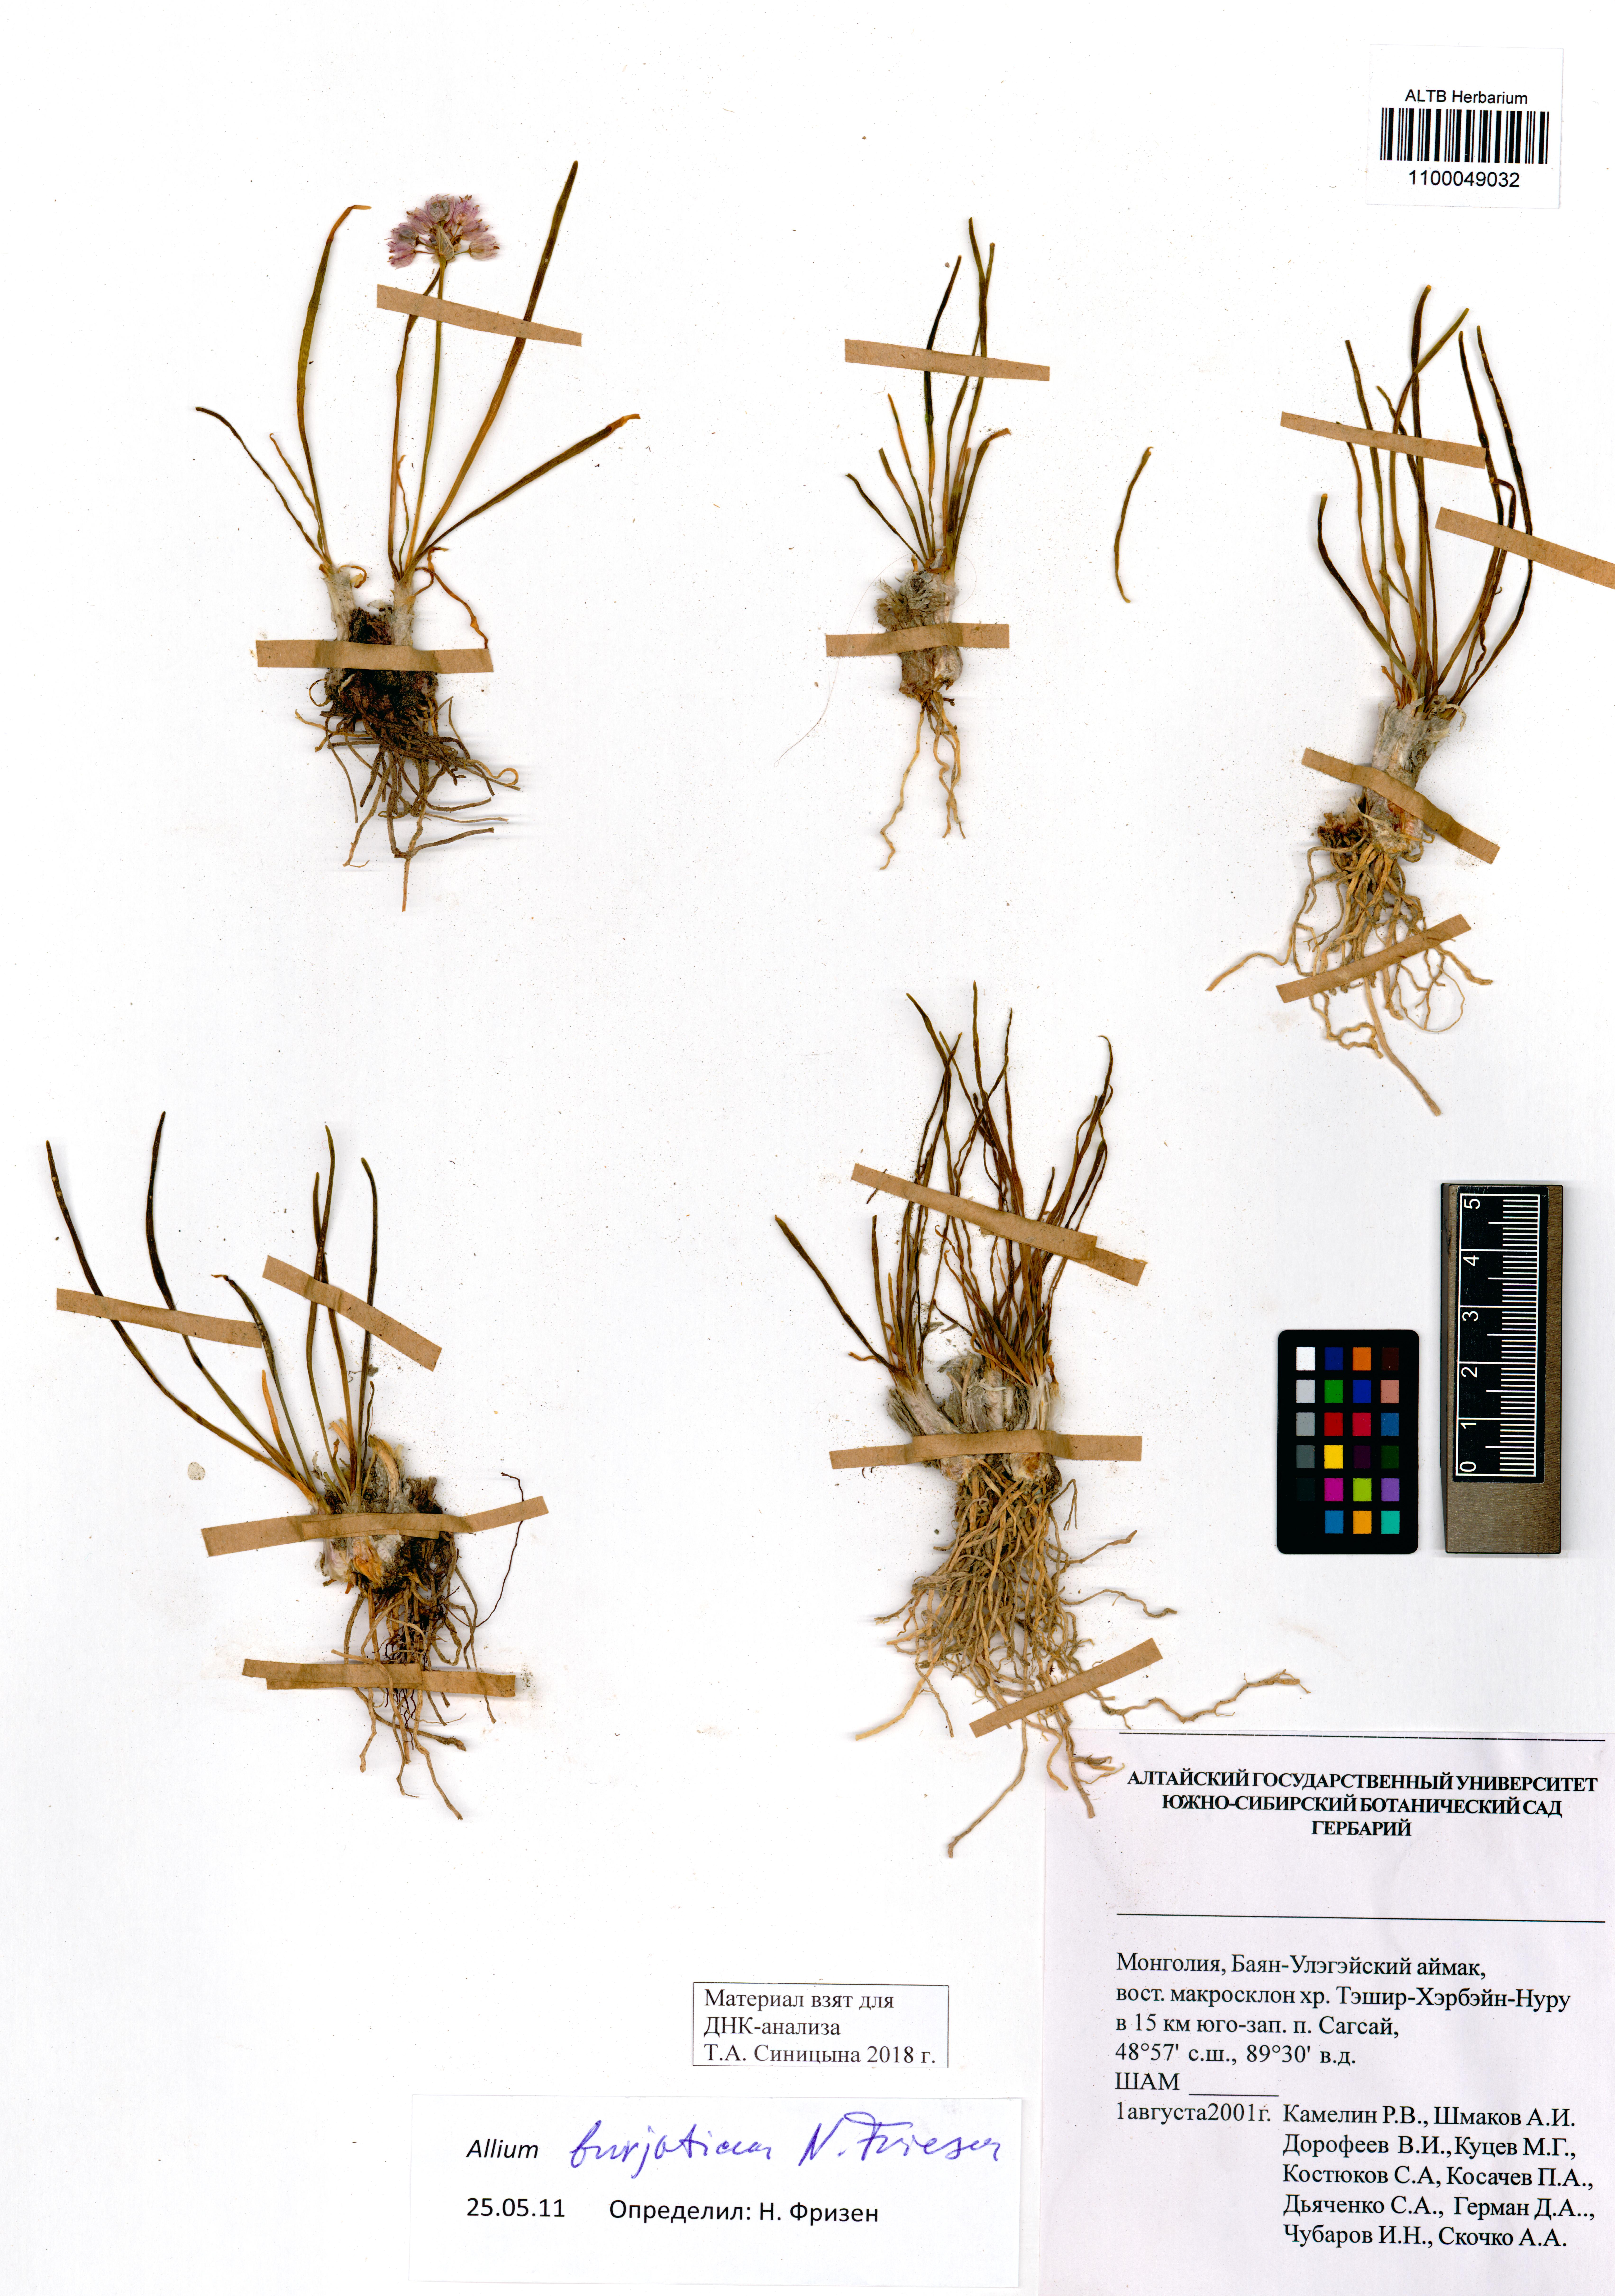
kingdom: Plantae
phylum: Tracheophyta
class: Liliopsida
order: Asparagales
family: Amaryllidaceae
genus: Allium
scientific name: Allium burjaticum
